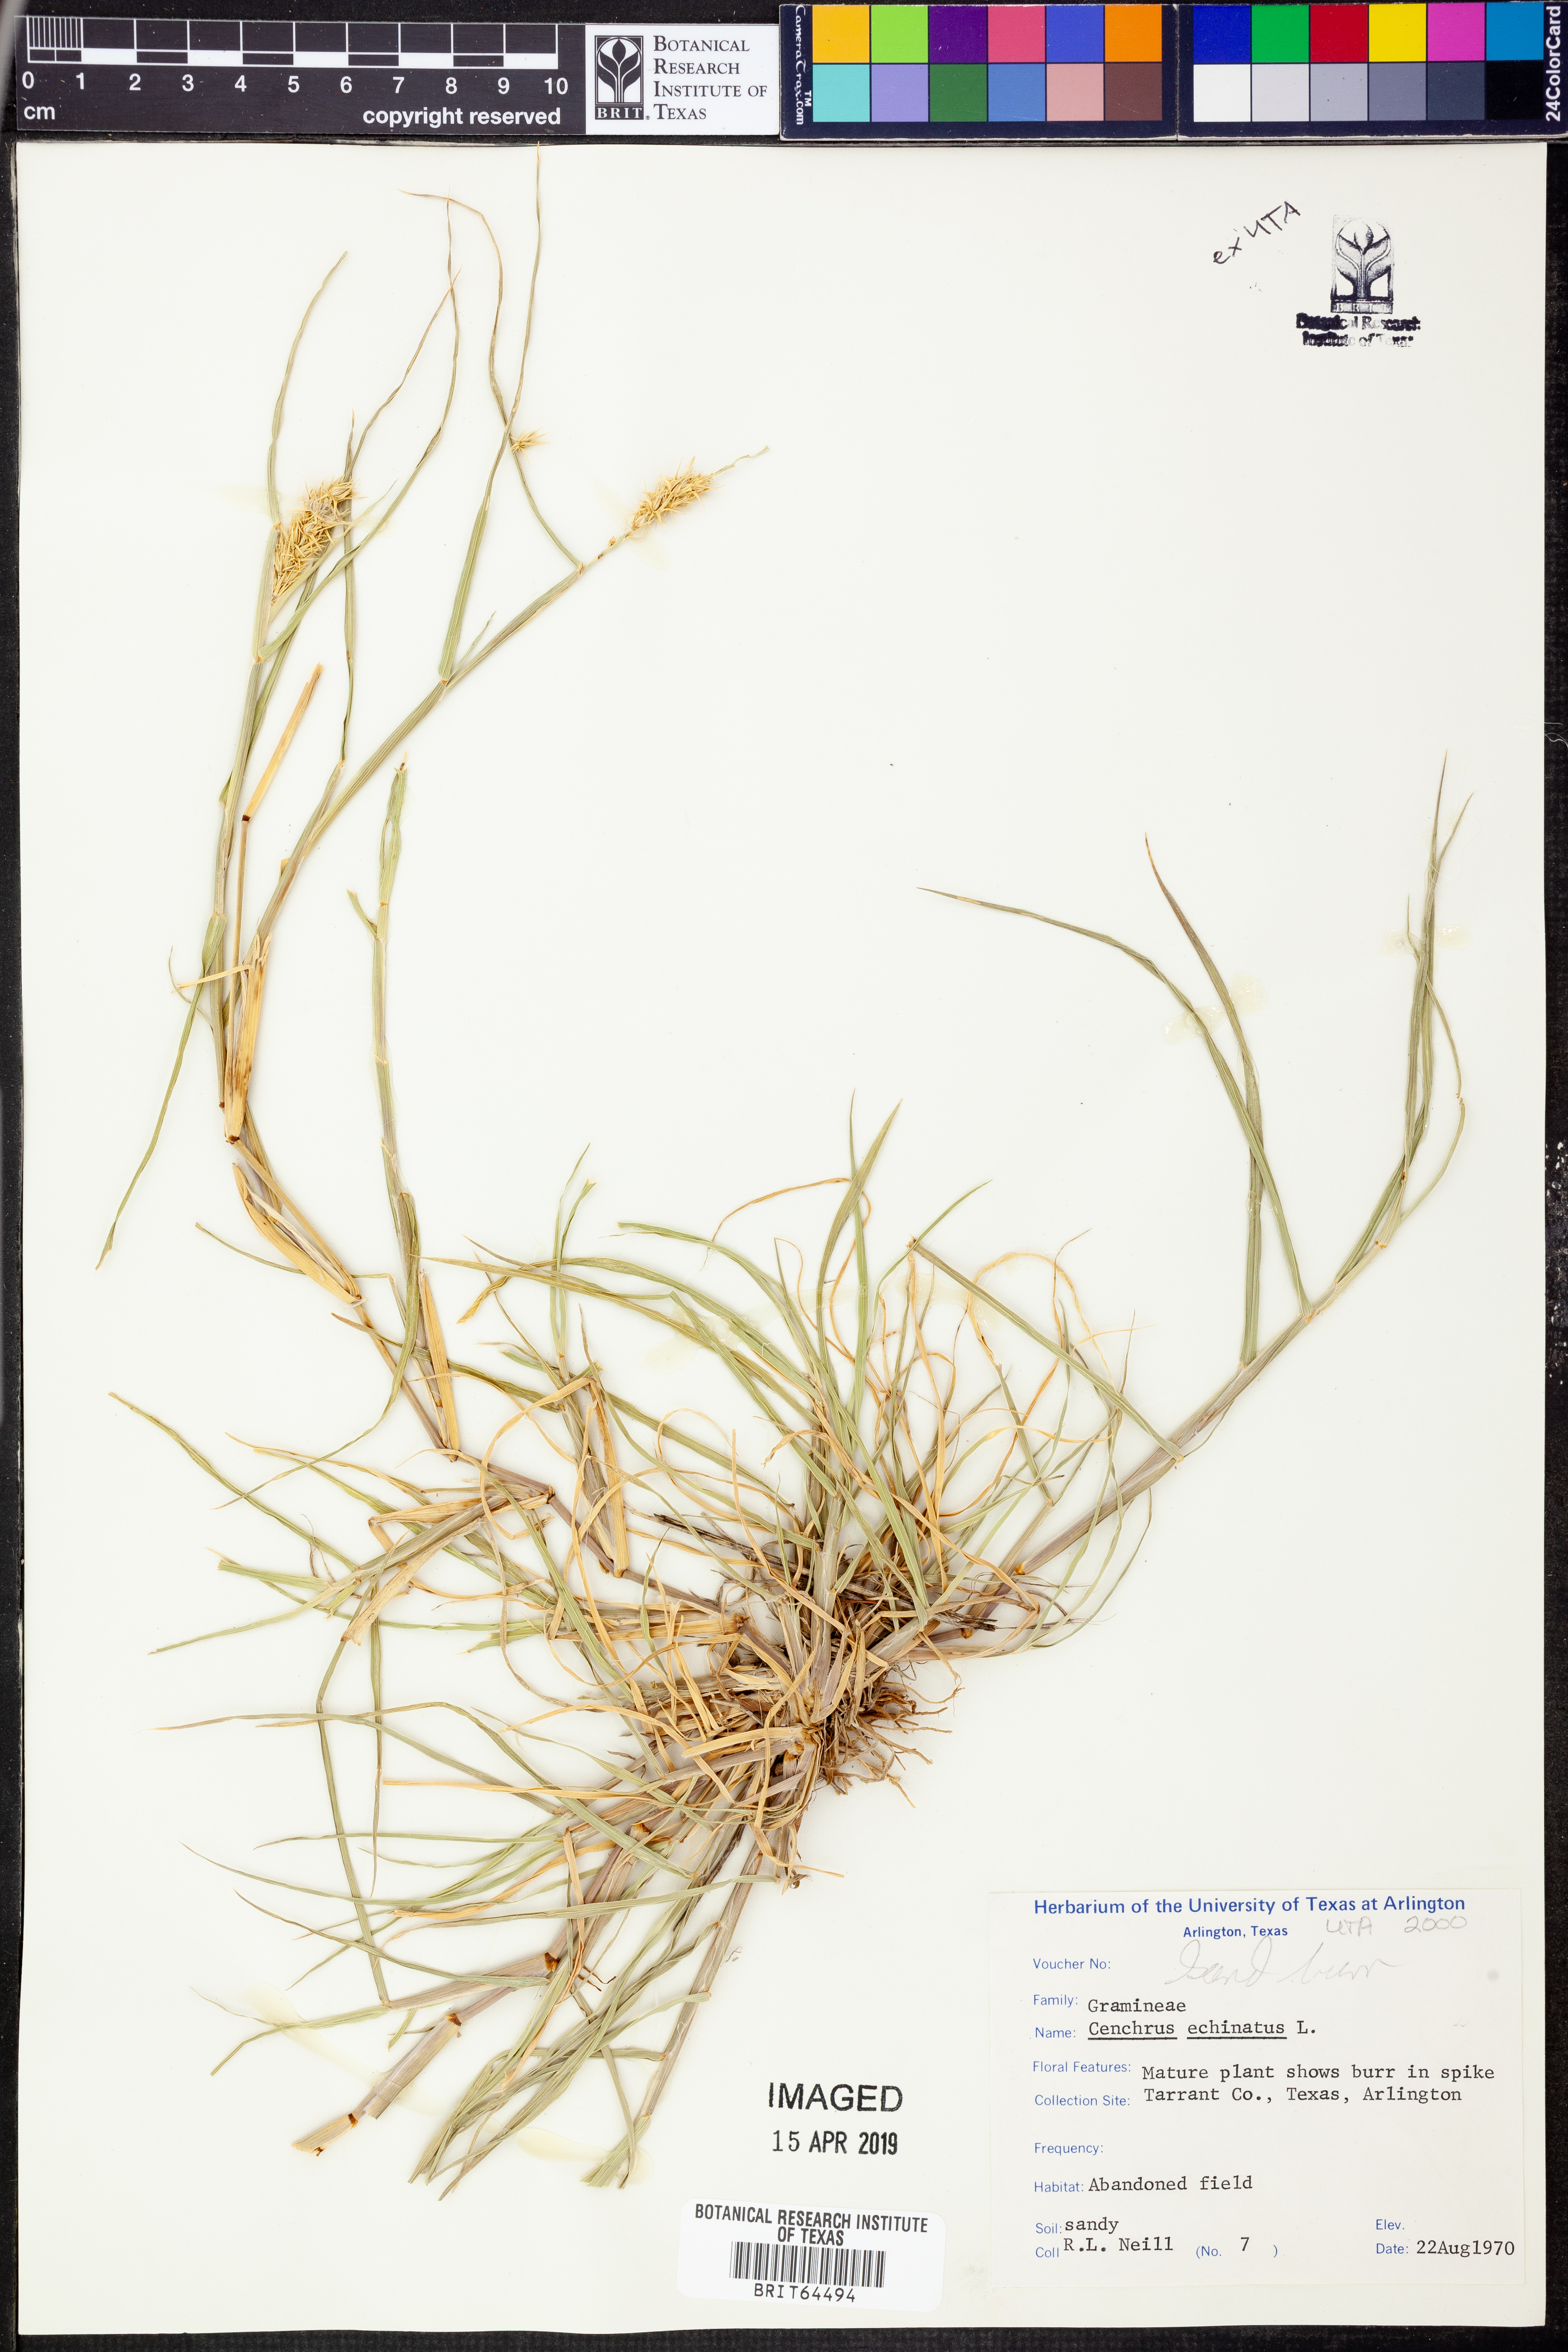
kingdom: Plantae
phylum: Tracheophyta
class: Liliopsida
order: Poales
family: Poaceae
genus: Cenchrus
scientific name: Cenchrus echinatus
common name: Southern sandbur
